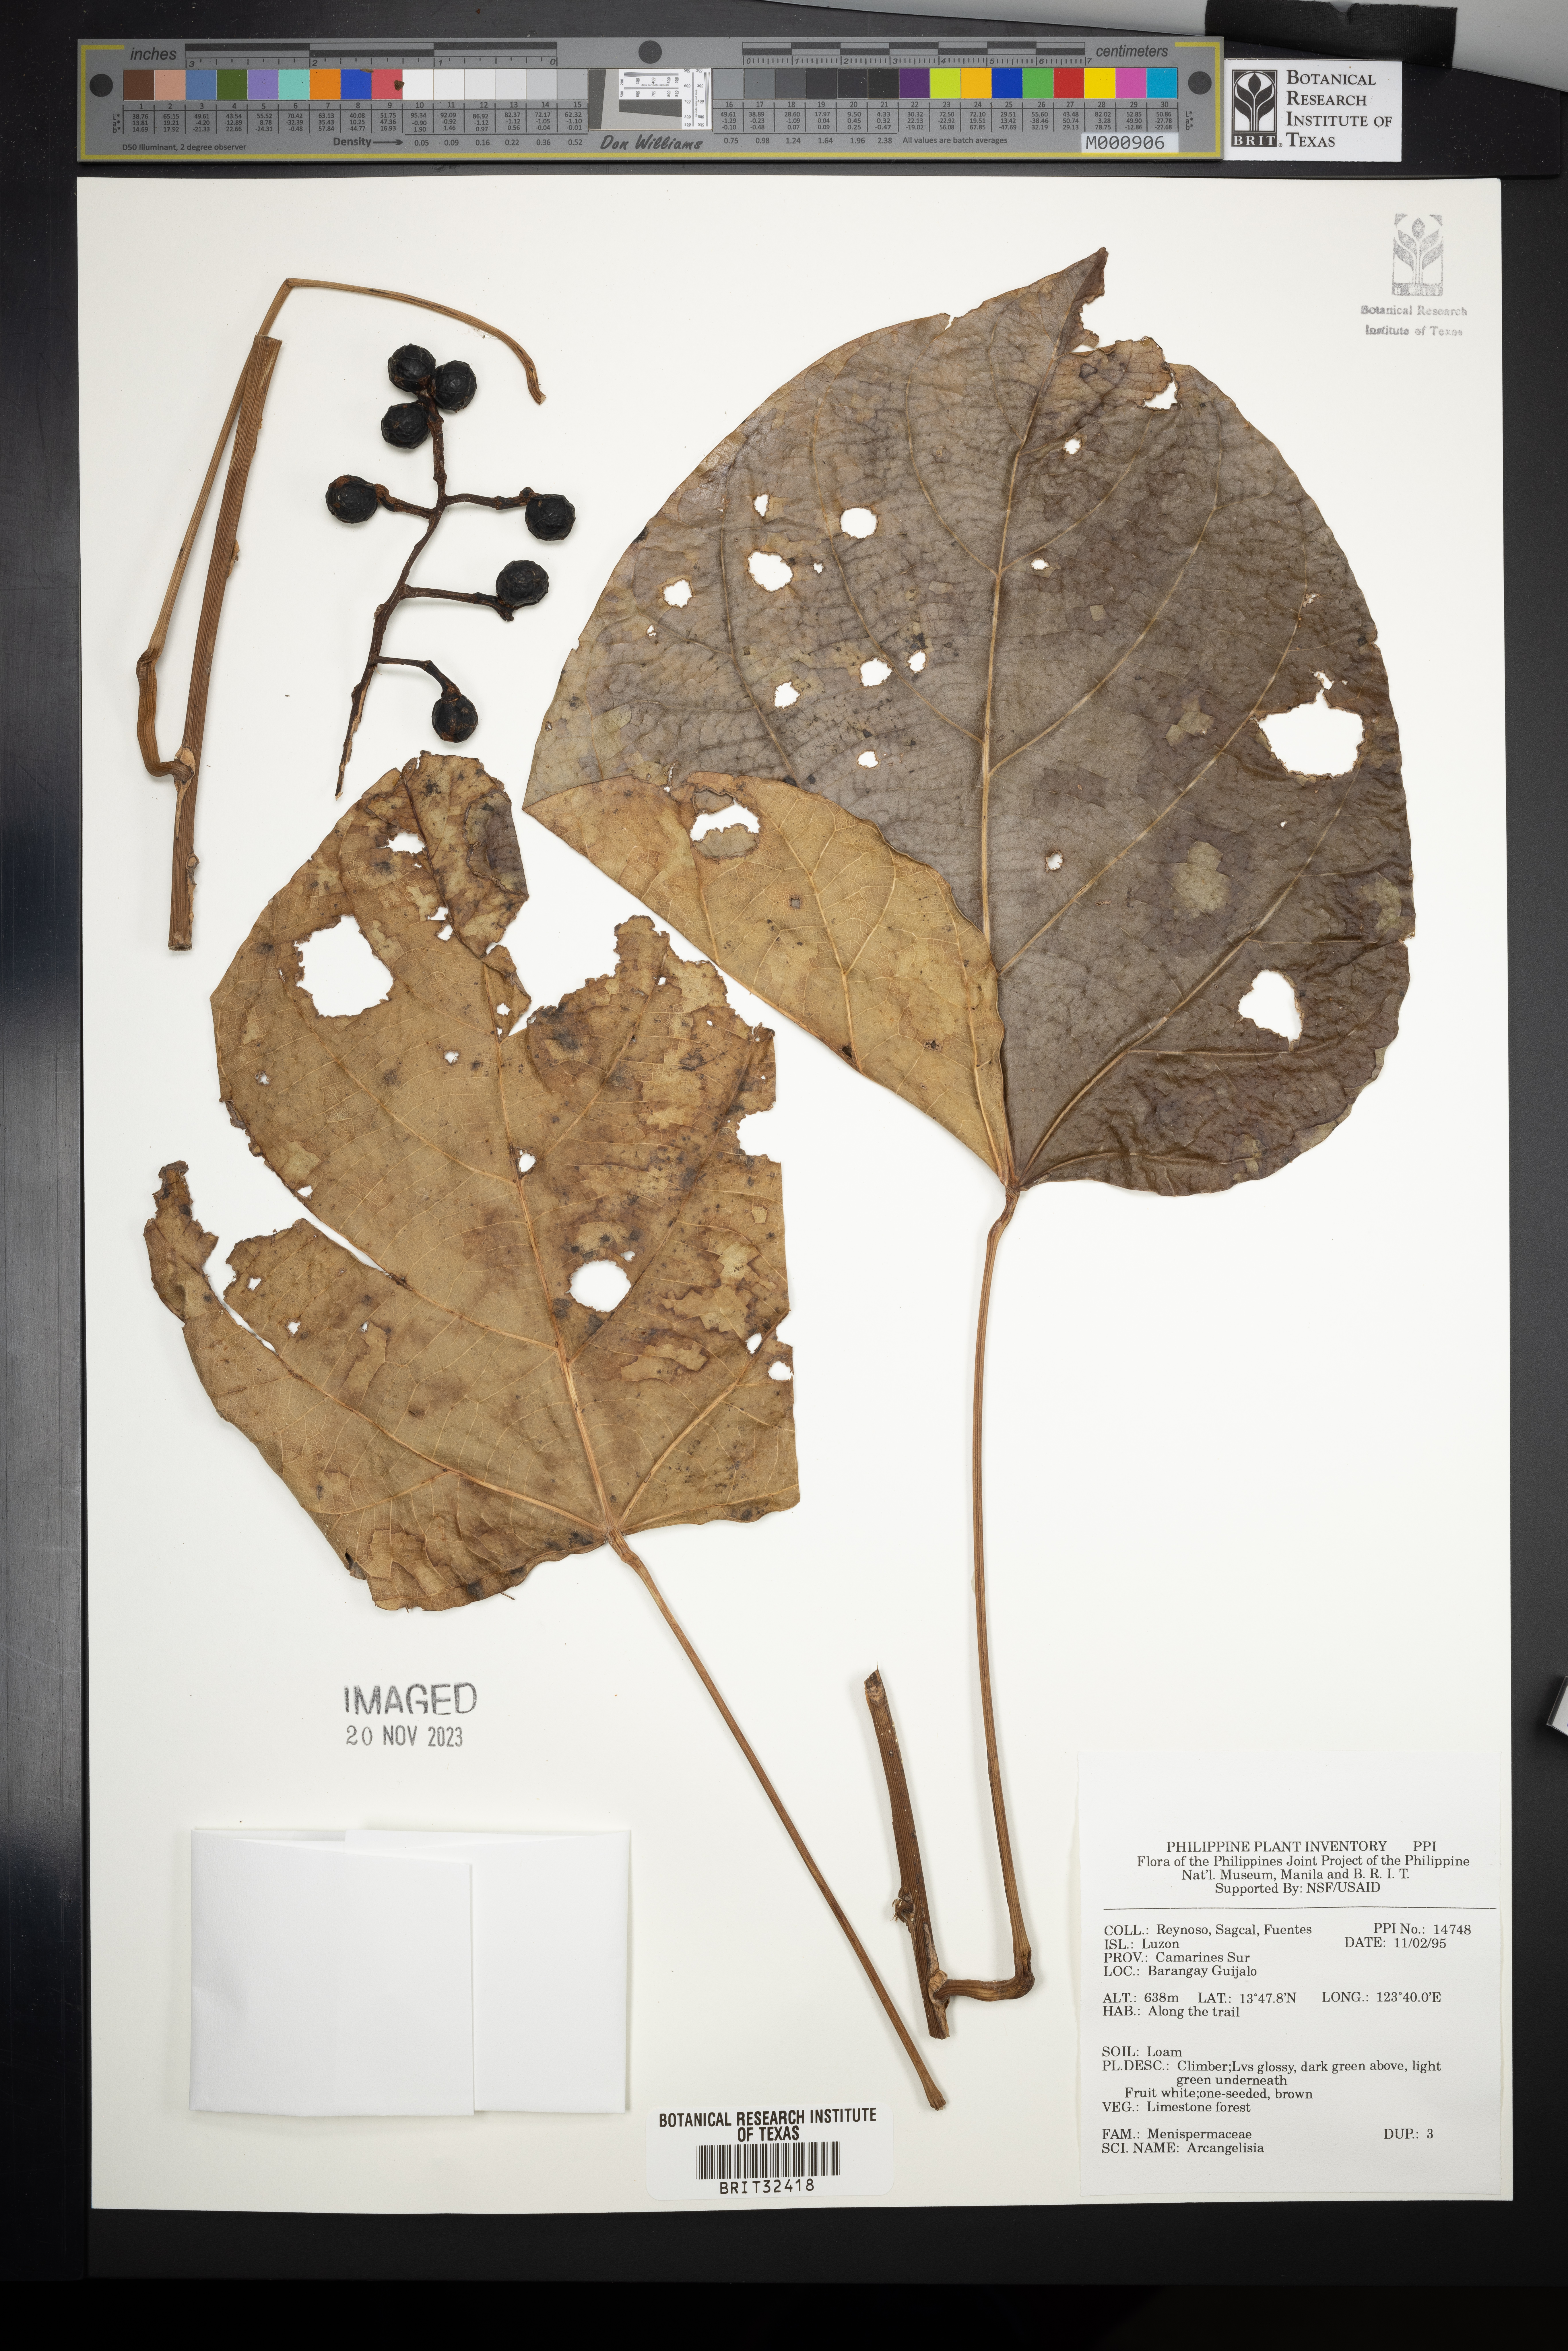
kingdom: Plantae
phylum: Tracheophyta
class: Magnoliopsida
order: Ranunculales
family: Menispermaceae
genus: Arcangelisia
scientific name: Arcangelisia
